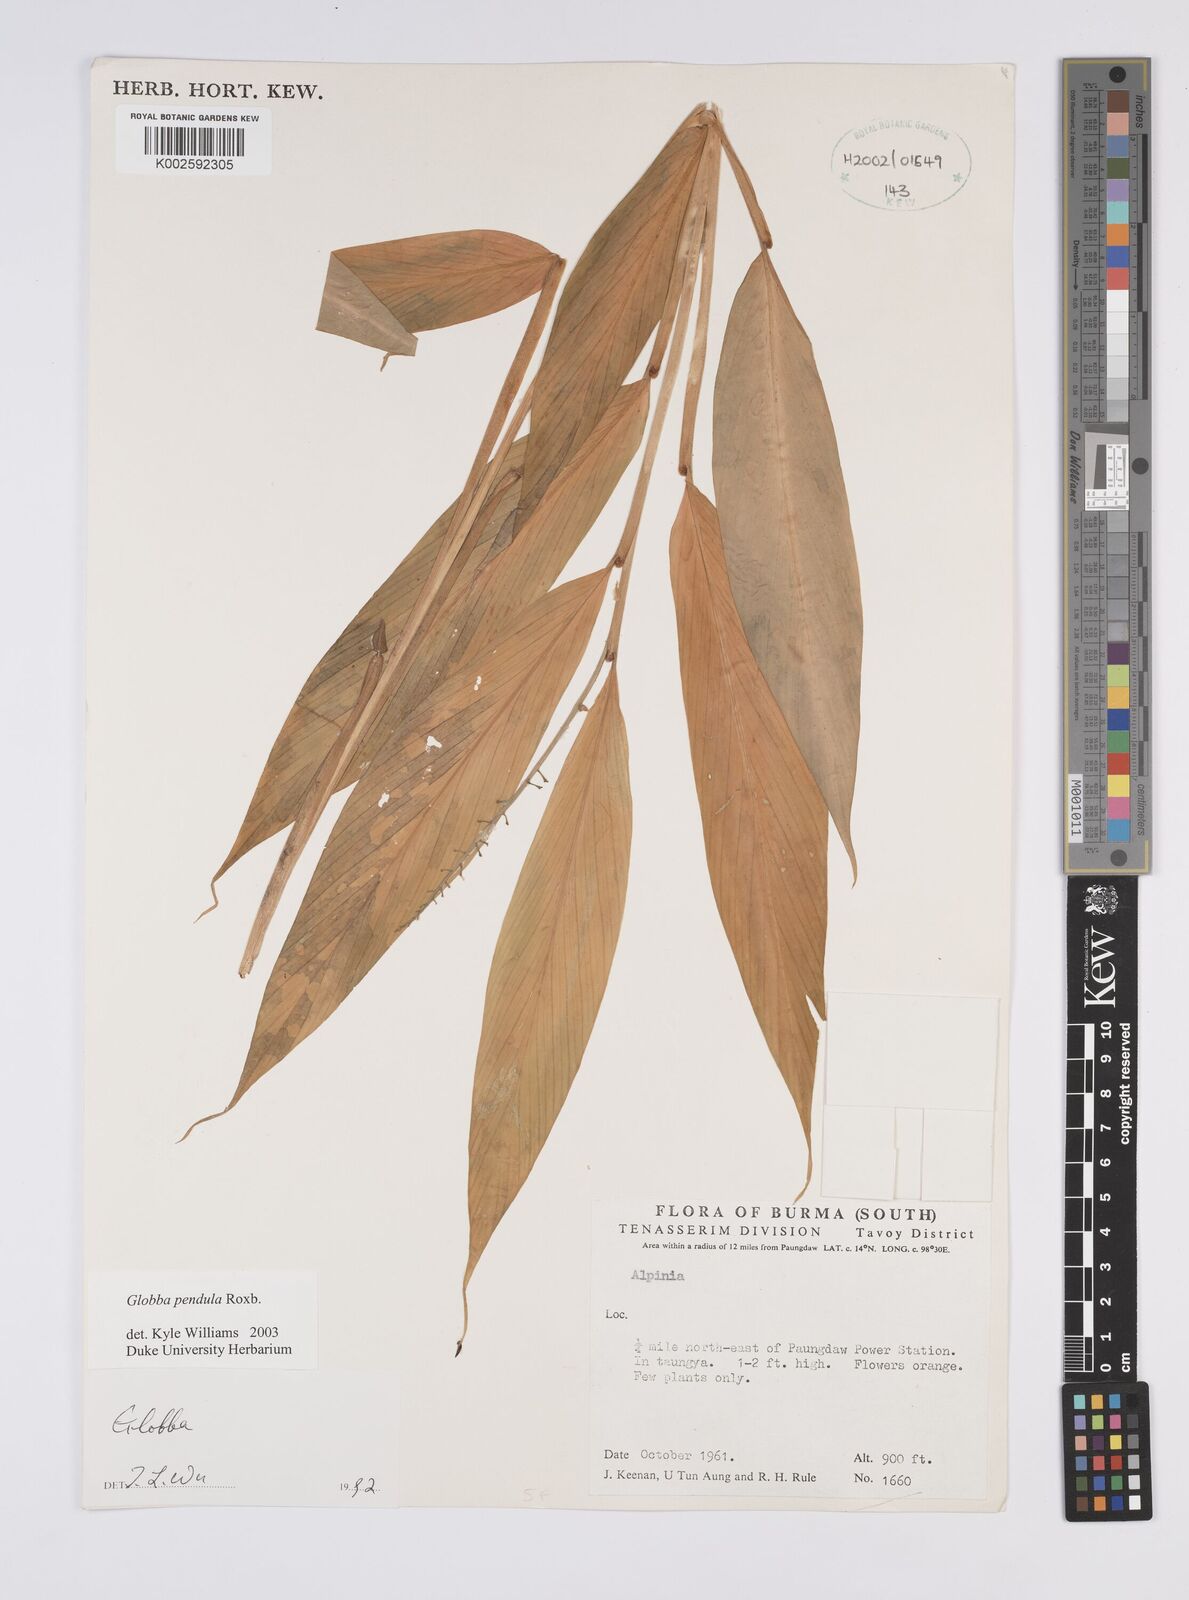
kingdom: Plantae
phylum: Tracheophyta
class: Liliopsida
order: Zingiberales
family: Zingiberaceae
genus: Globba
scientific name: Globba pendula
